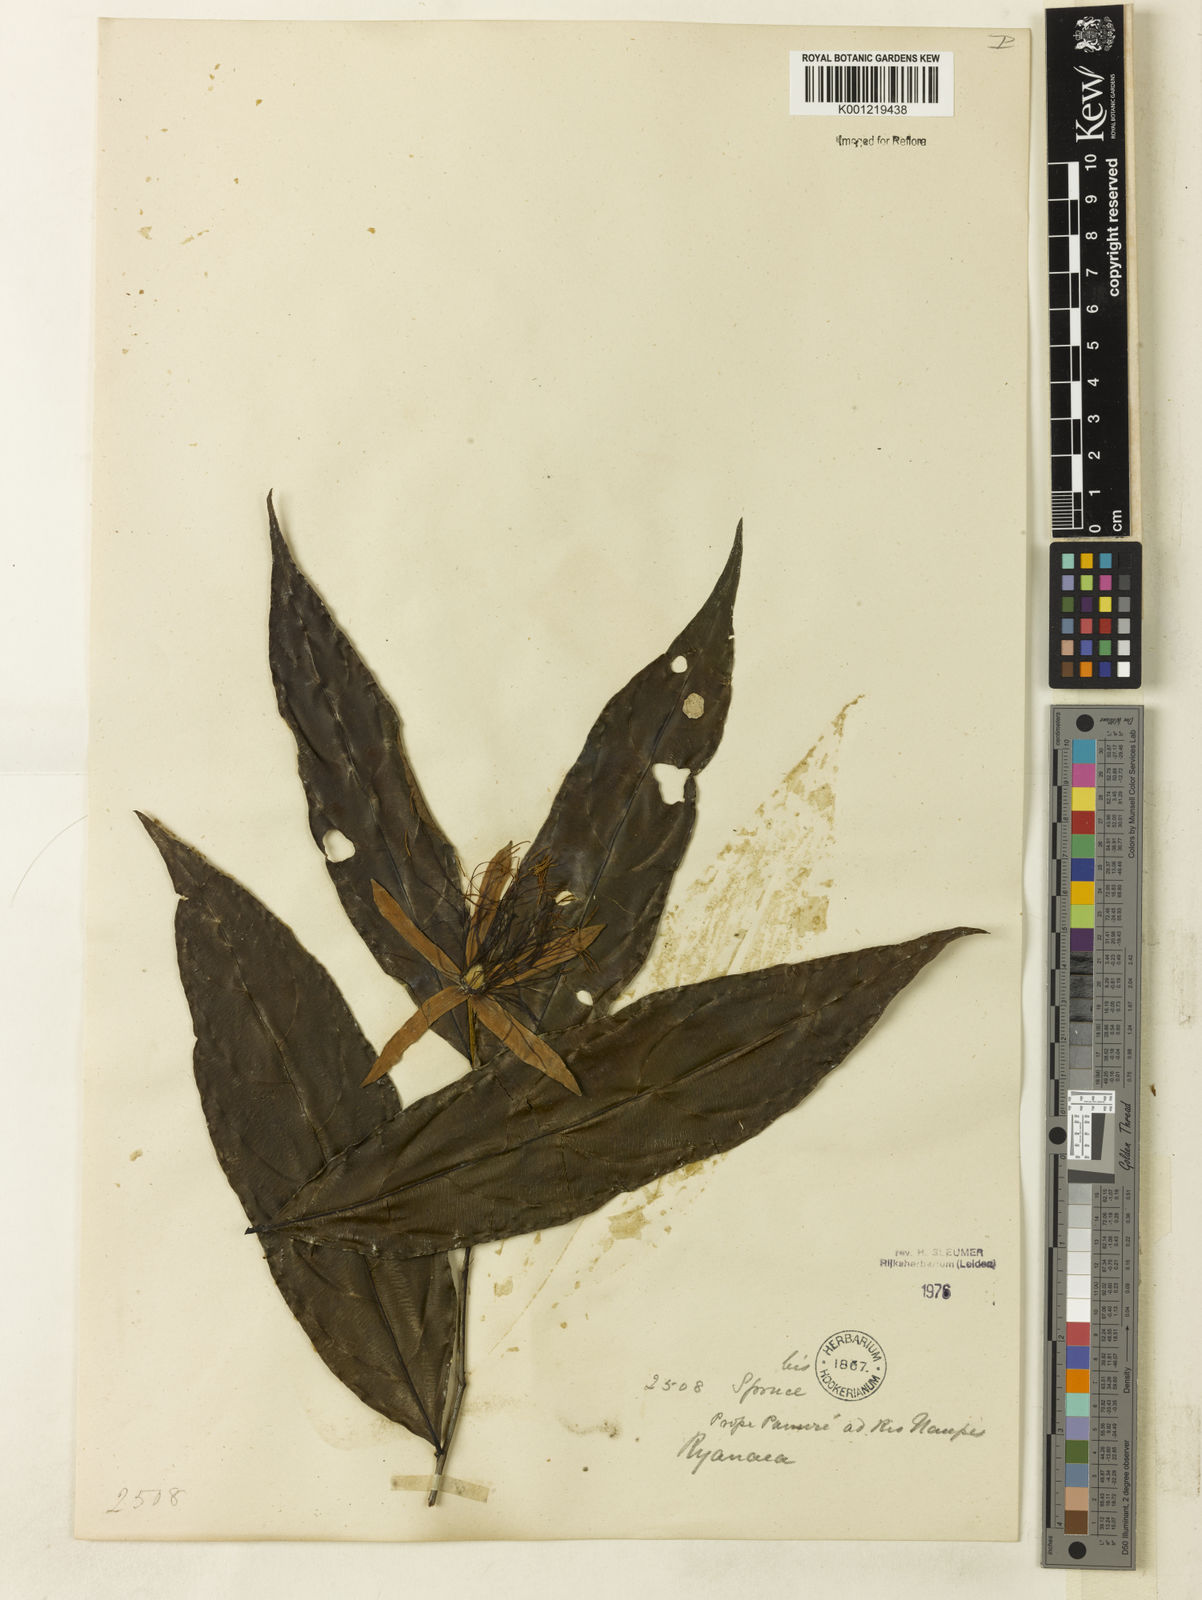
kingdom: Plantae
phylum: Tracheophyta
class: Magnoliopsida
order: Malpighiales
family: Salicaceae
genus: Ryania
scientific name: Ryania angustifolia
